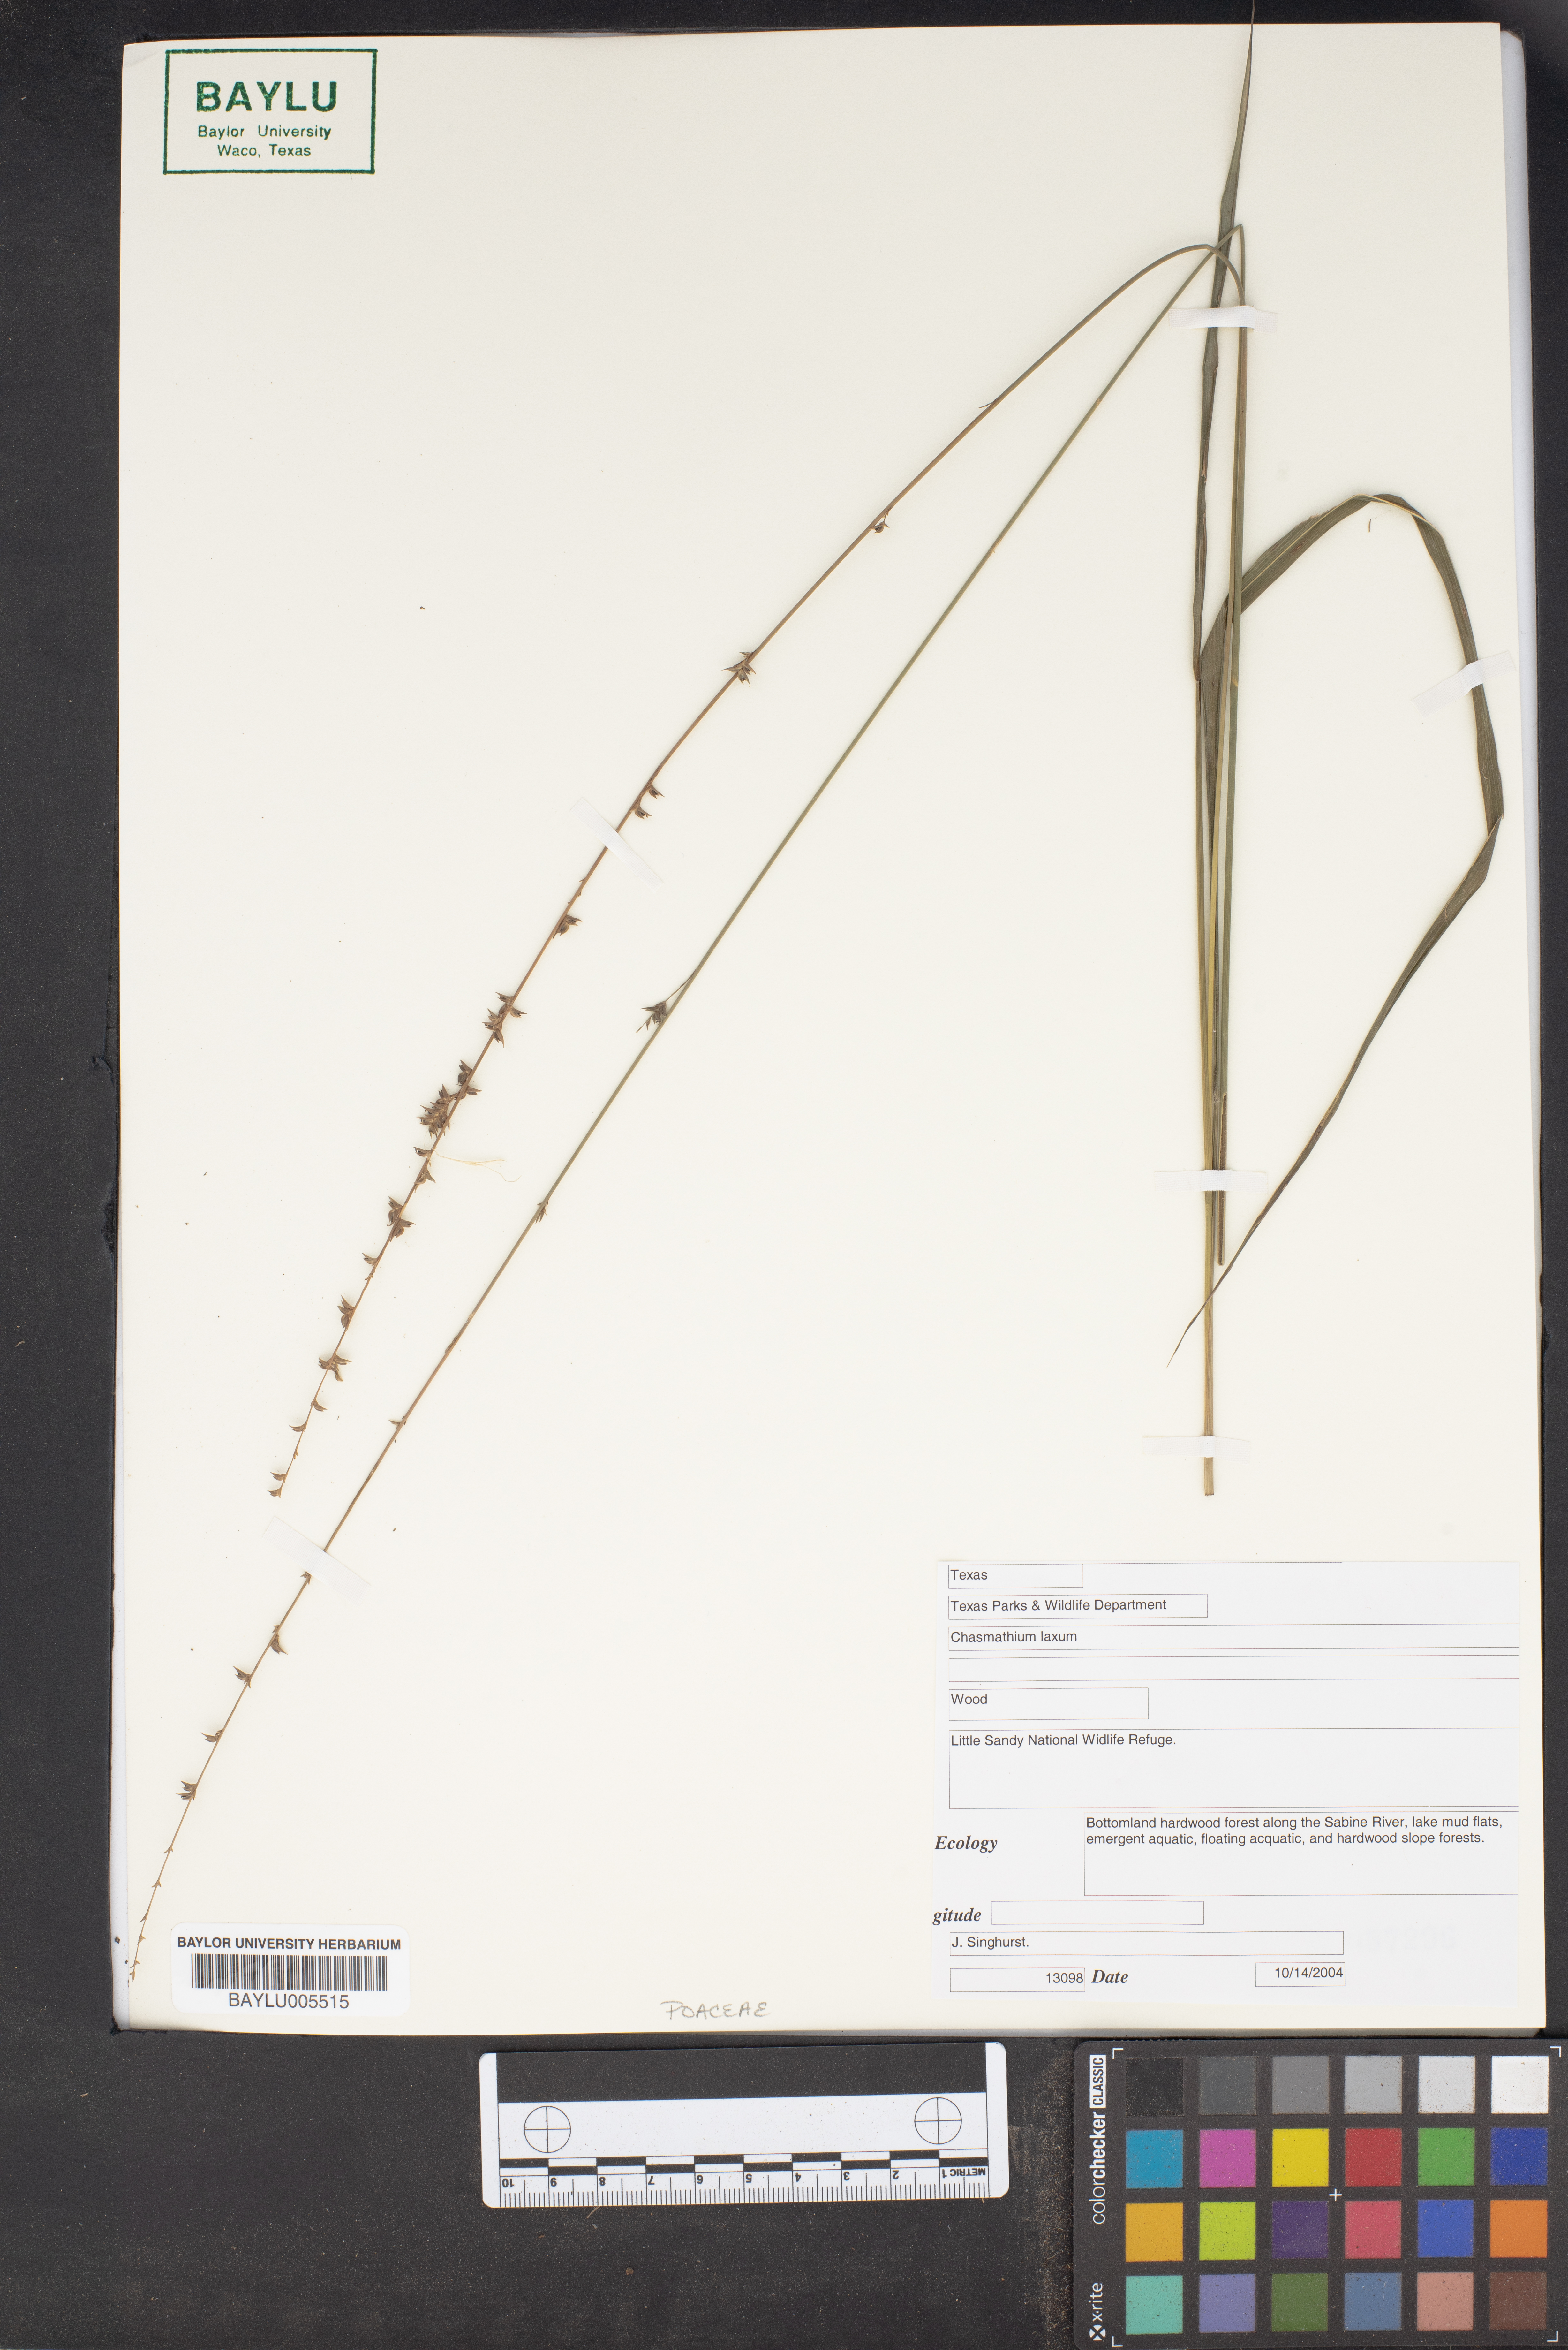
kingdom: Plantae
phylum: Tracheophyta
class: Liliopsida
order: Poales
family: Poaceae
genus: Chasmanthium
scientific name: Chasmanthium laxum
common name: Slender chasmanthium
